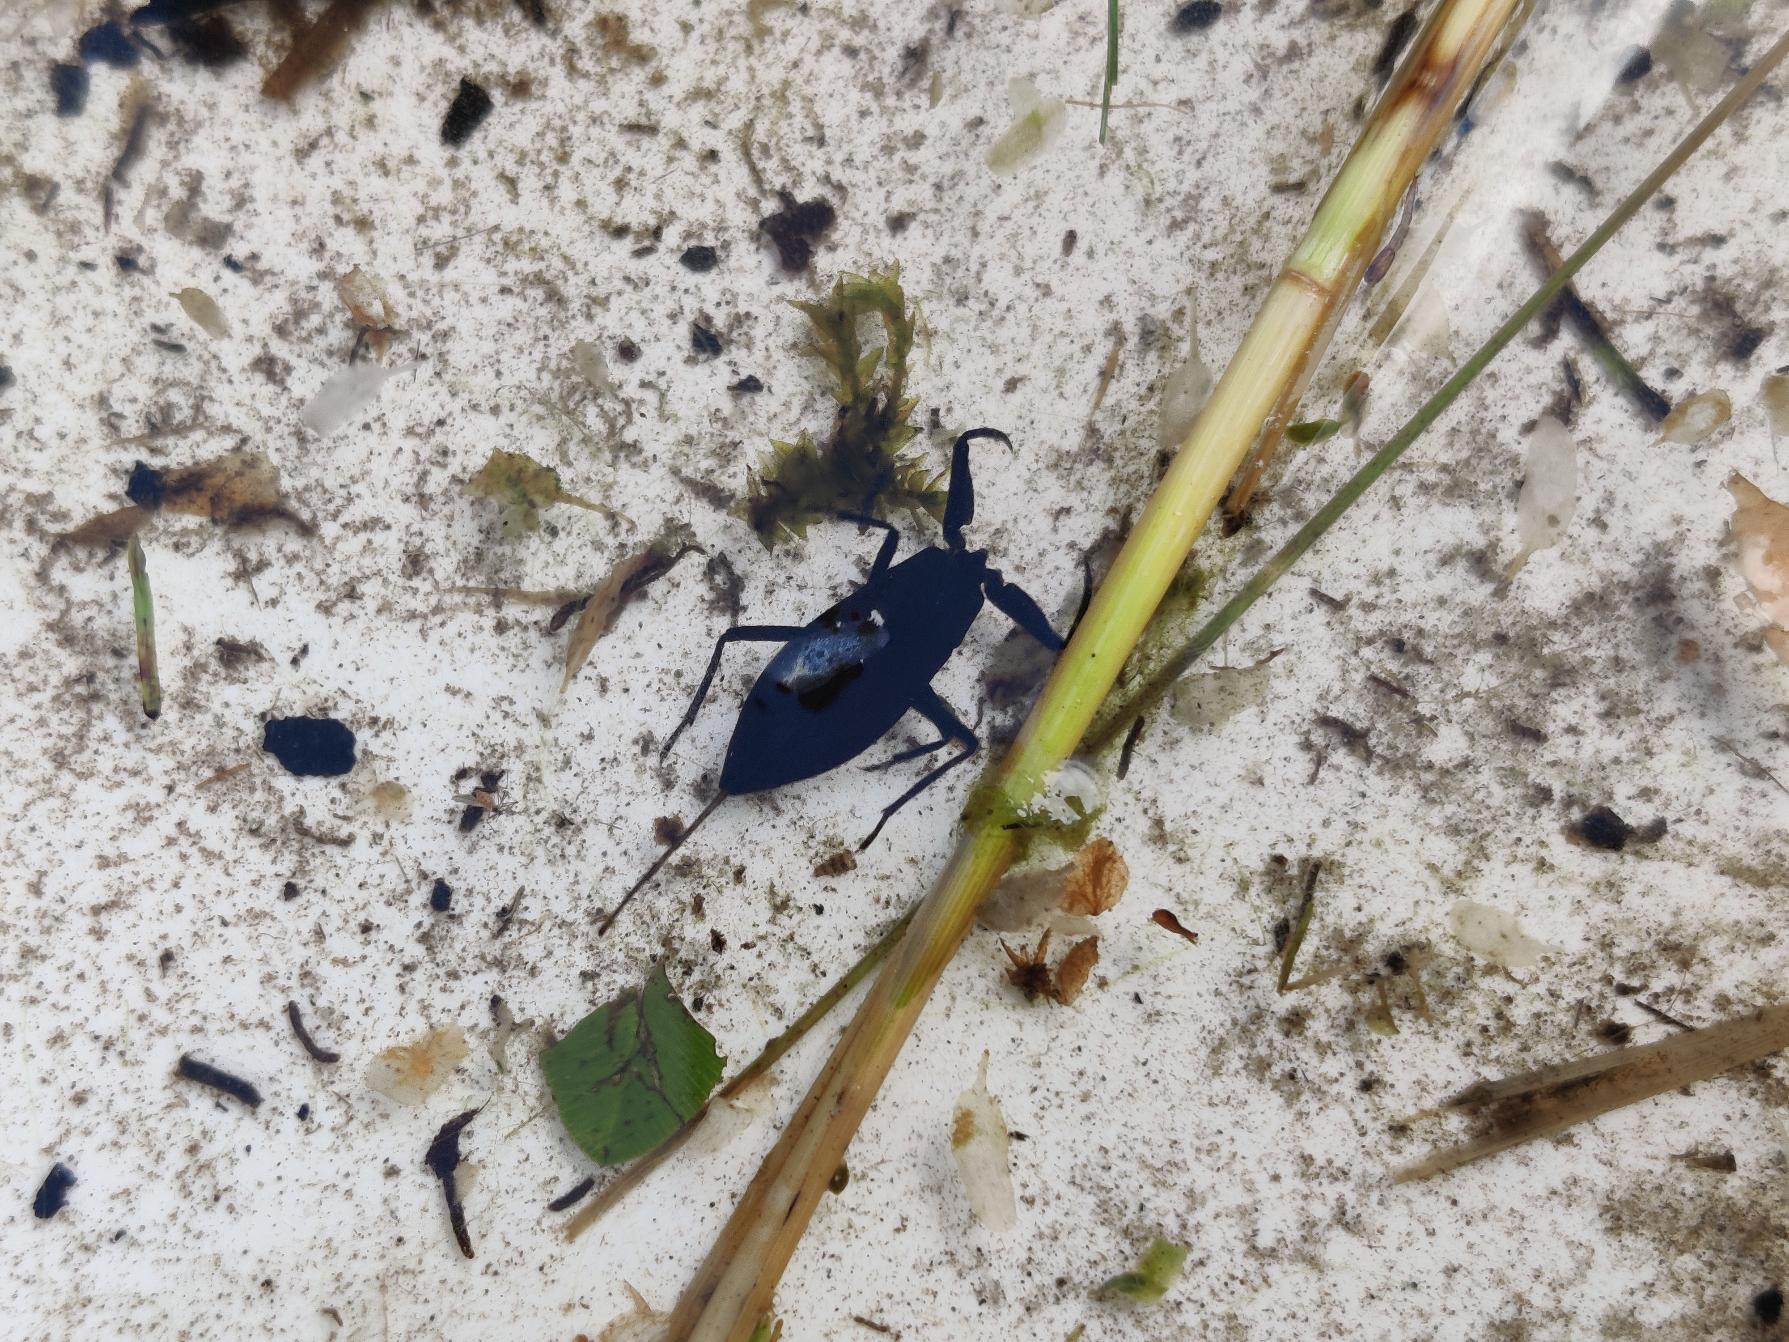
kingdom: Animalia
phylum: Arthropoda
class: Insecta
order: Hemiptera
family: Nepidae
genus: Nepa
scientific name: Nepa cinerea
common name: Skorpiontæge
